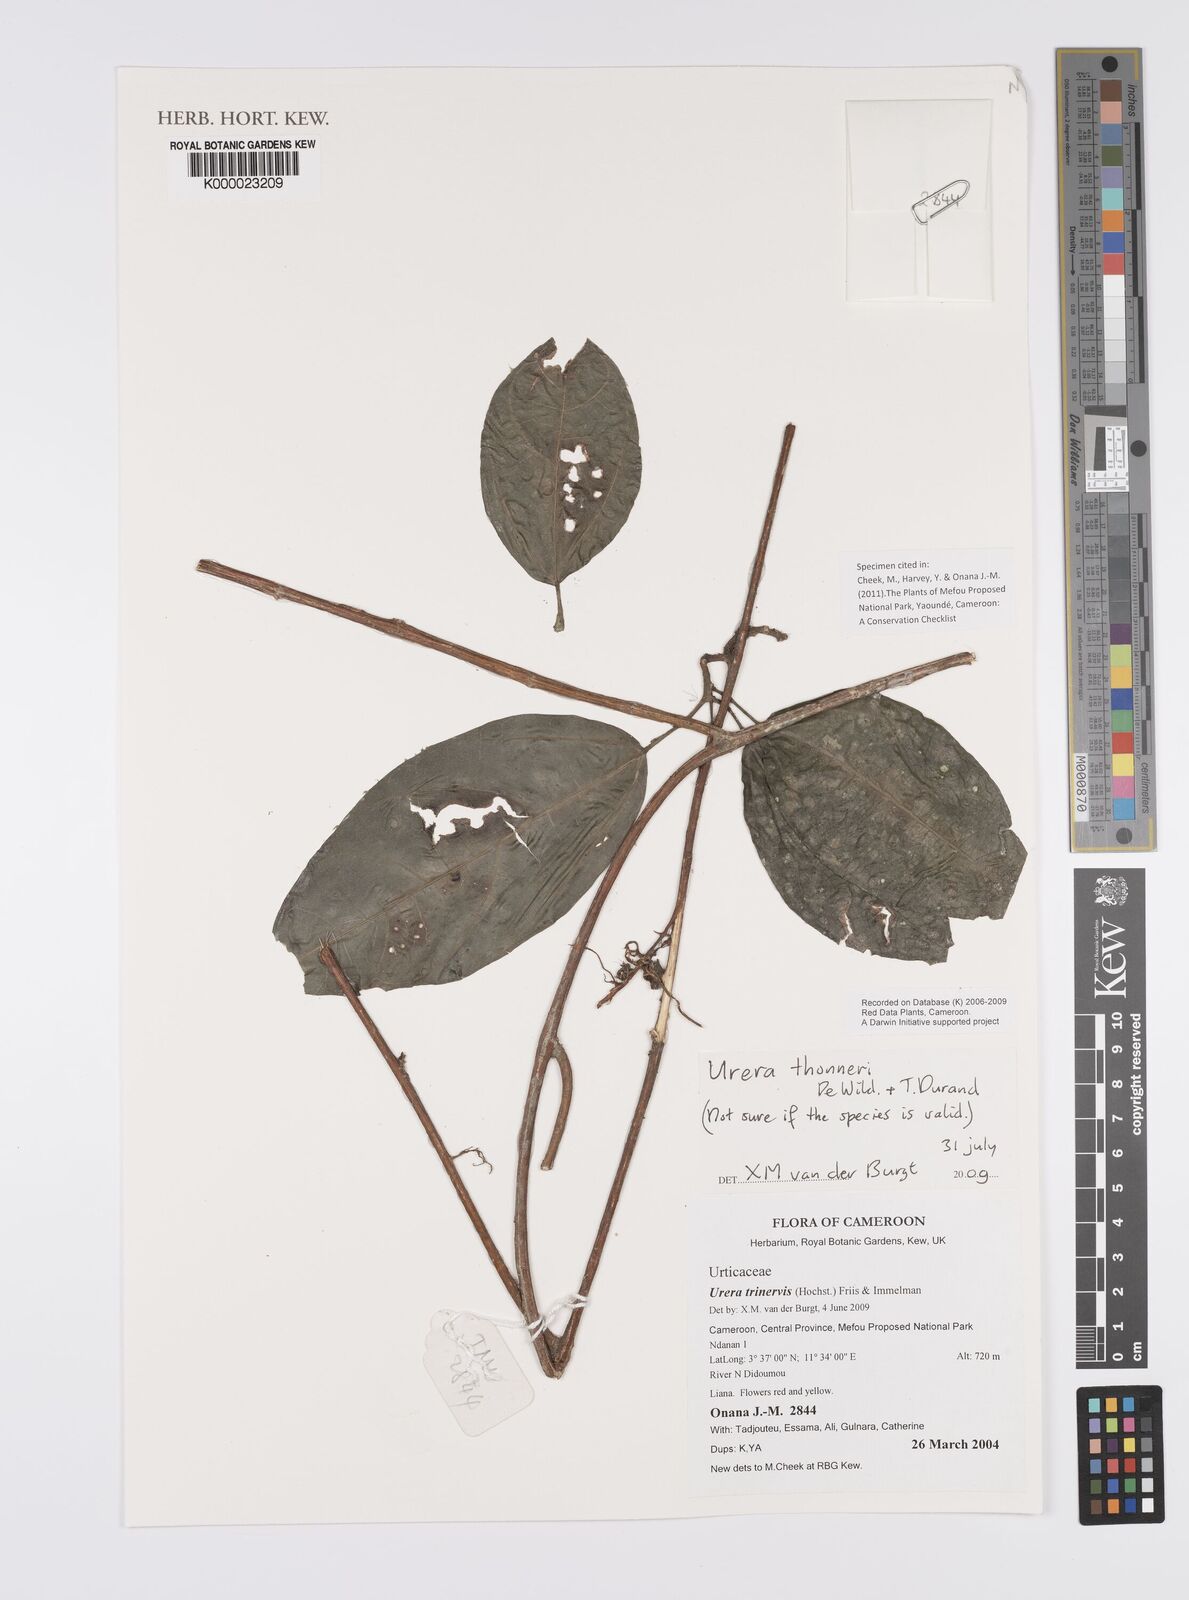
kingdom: Plantae
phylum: Tracheophyta
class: Magnoliopsida
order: Rosales
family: Urticaceae
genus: Scepocarpus
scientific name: Scepocarpus thonneri
